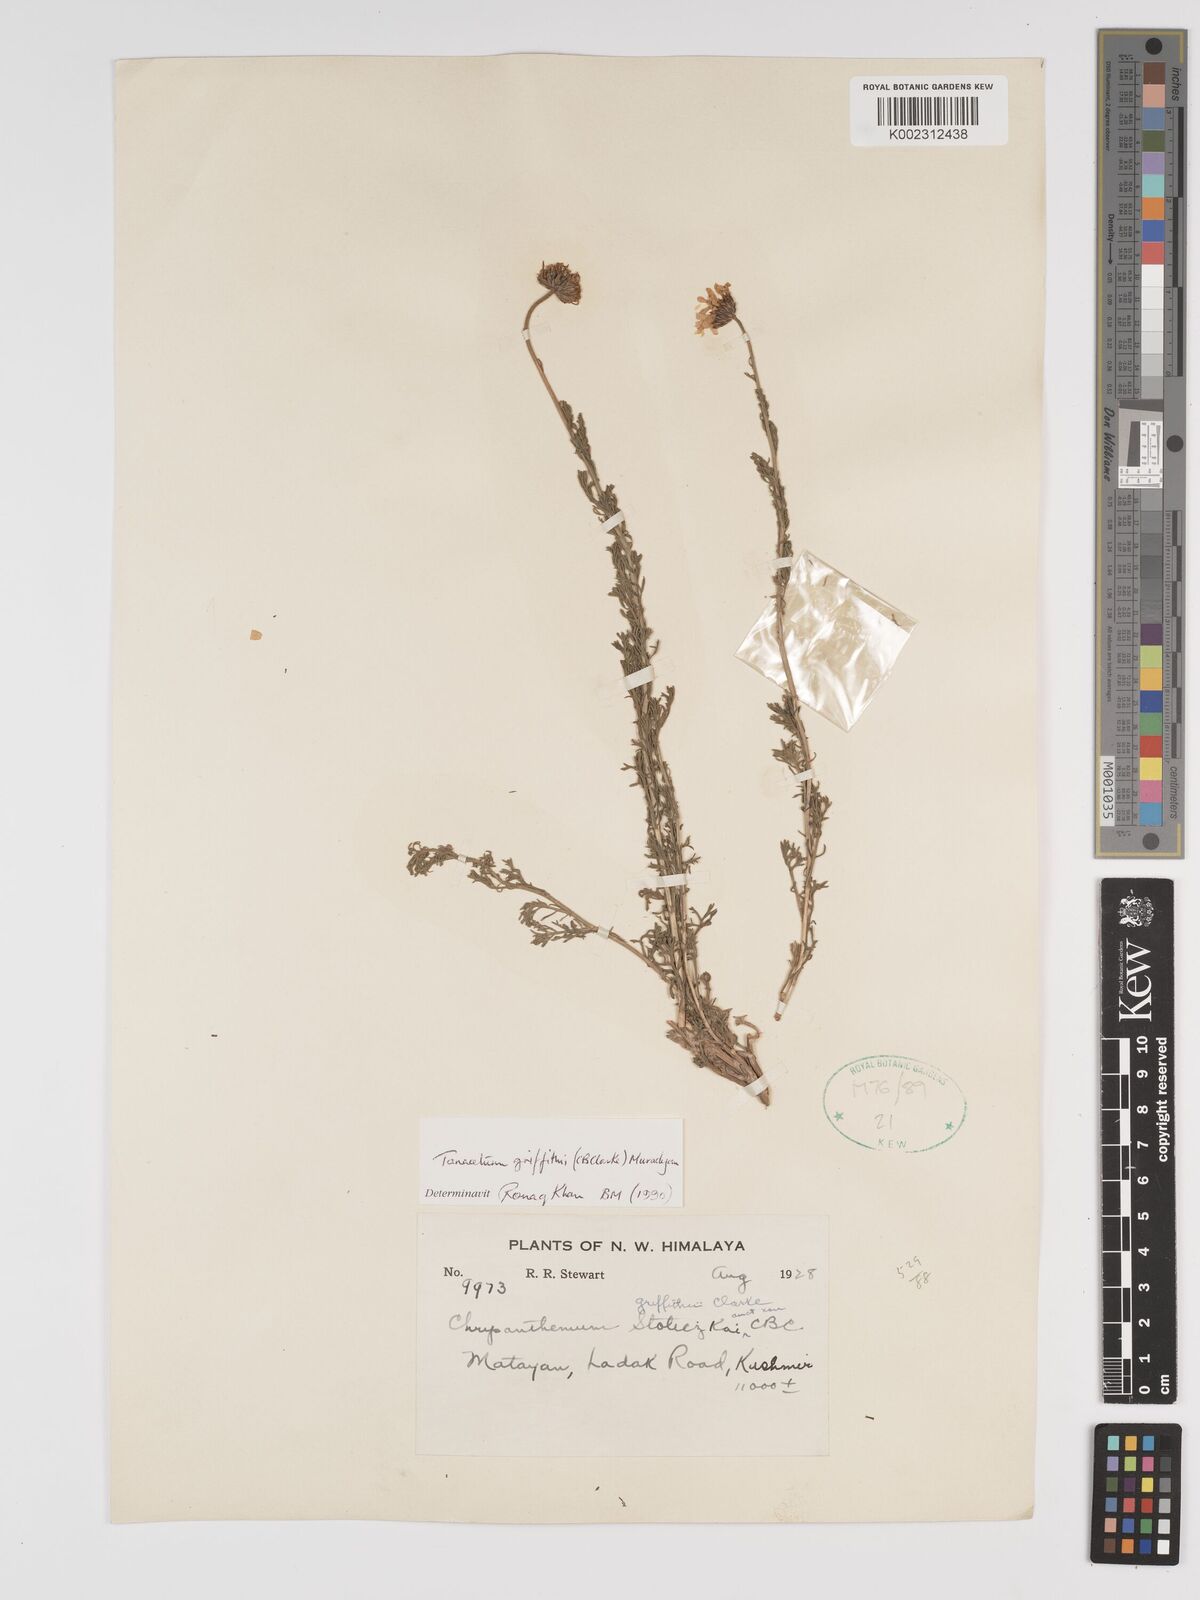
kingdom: Plantae
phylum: Tracheophyta
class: Magnoliopsida
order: Asterales
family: Asteraceae
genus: Tanacetum
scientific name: Tanacetum griffithii
